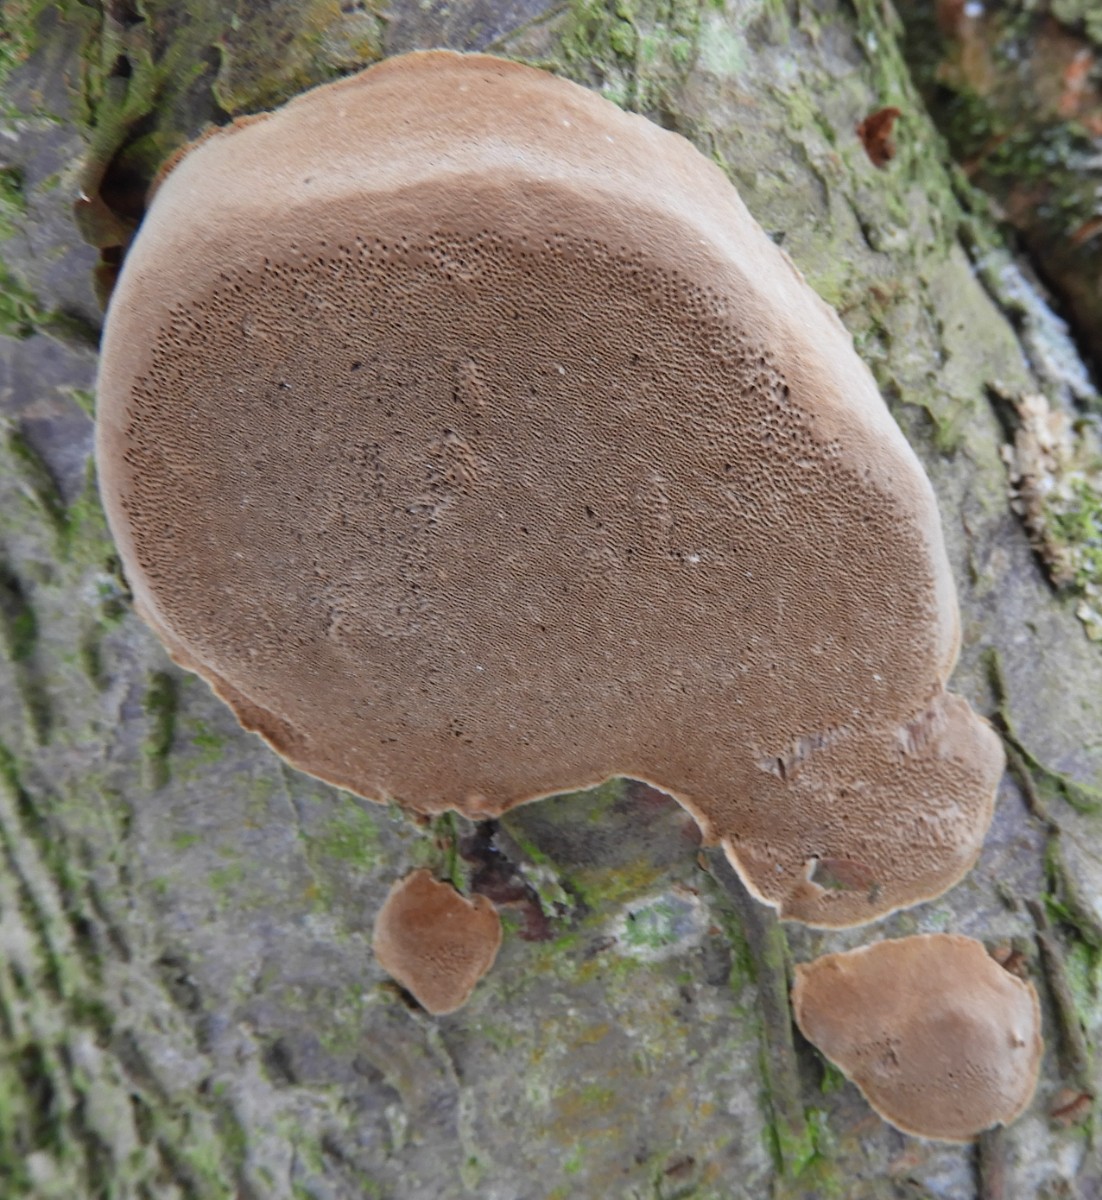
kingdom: Fungi
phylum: Basidiomycota
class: Agaricomycetes
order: Hymenochaetales
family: Hymenochaetaceae
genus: Phellinus
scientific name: Phellinus pomaceus
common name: blomme-ildporesvamp
